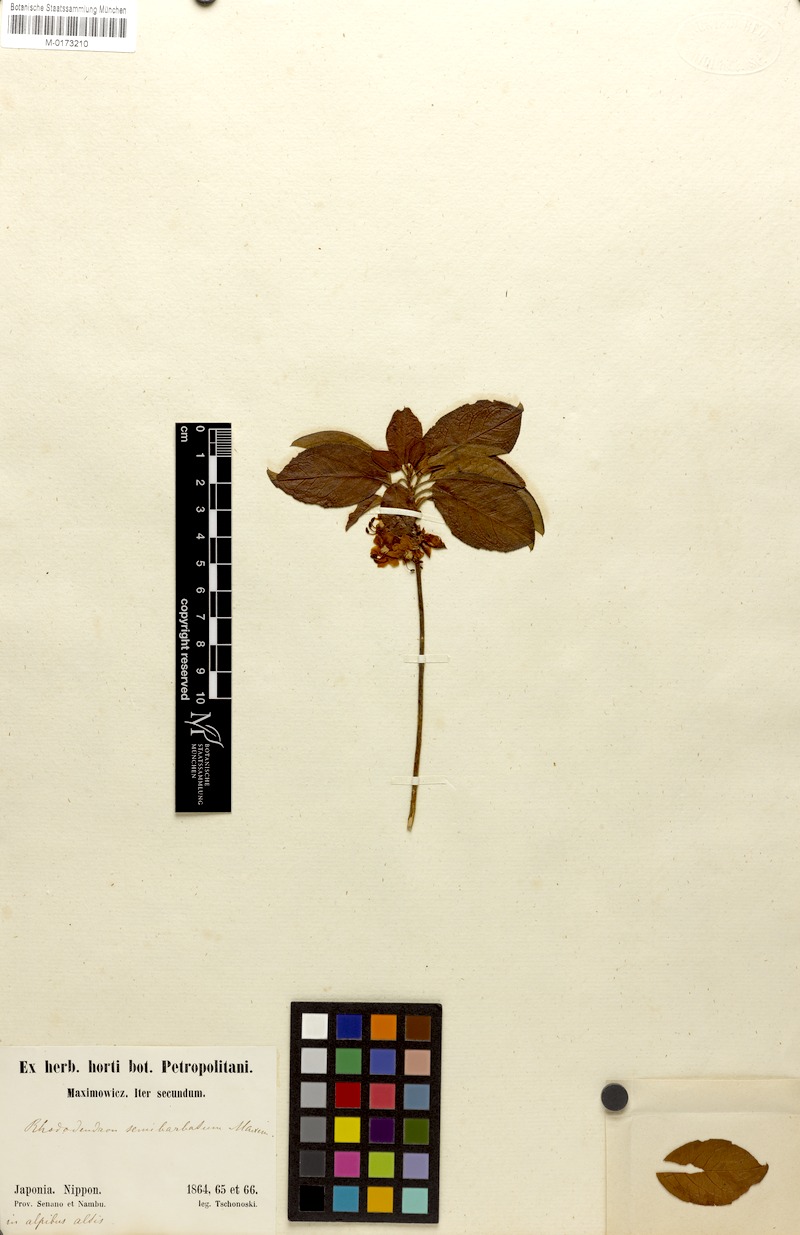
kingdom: Plantae
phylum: Tracheophyta
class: Magnoliopsida
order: Ericales
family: Ericaceae
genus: Rhododendron
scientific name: Rhododendron semibarbatum
